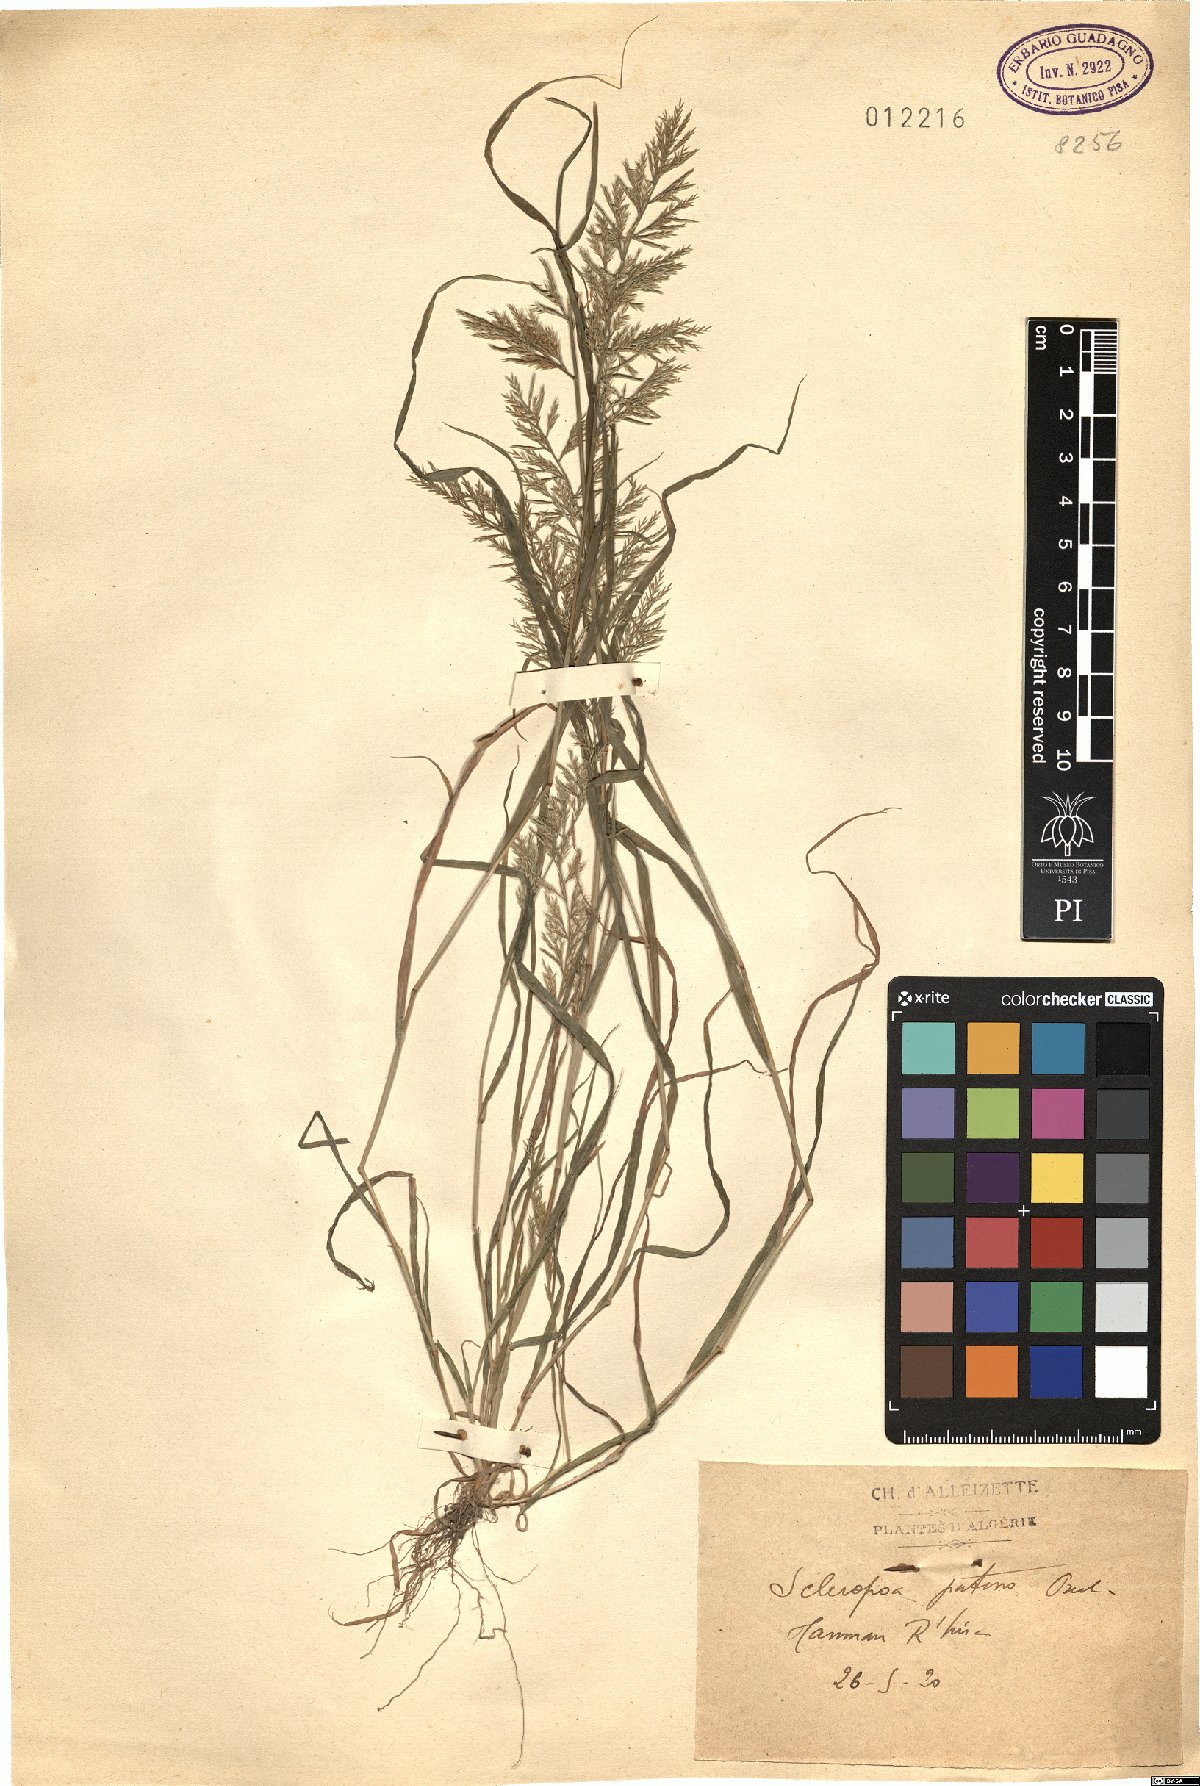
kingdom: Plantae
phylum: Tracheophyta
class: Liliopsida
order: Poales
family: Poaceae
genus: Catapodium
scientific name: Catapodium
